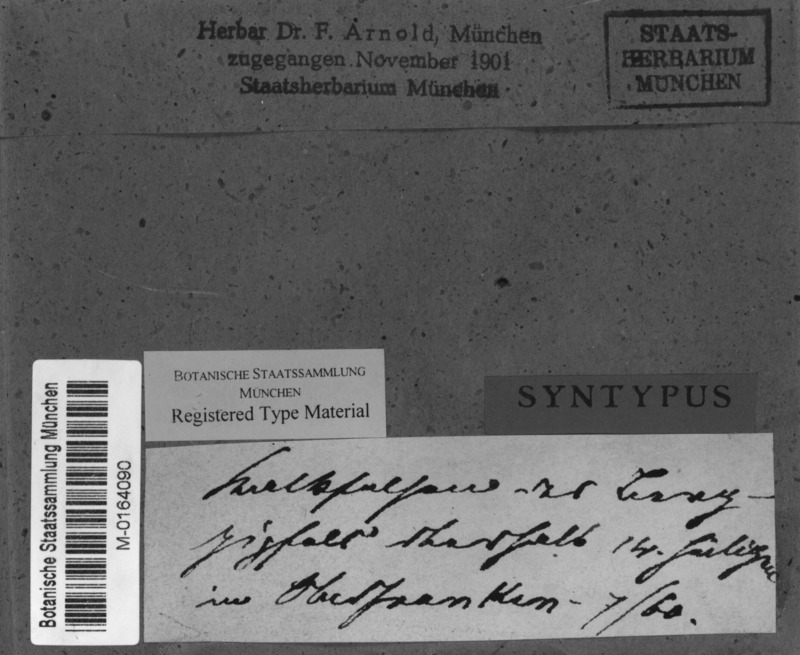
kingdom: Fungi
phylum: Ascomycota
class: Eurotiomycetes
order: Verrucariales
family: Verrucariaceae
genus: Thelidium
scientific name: Thelidium decipiens
